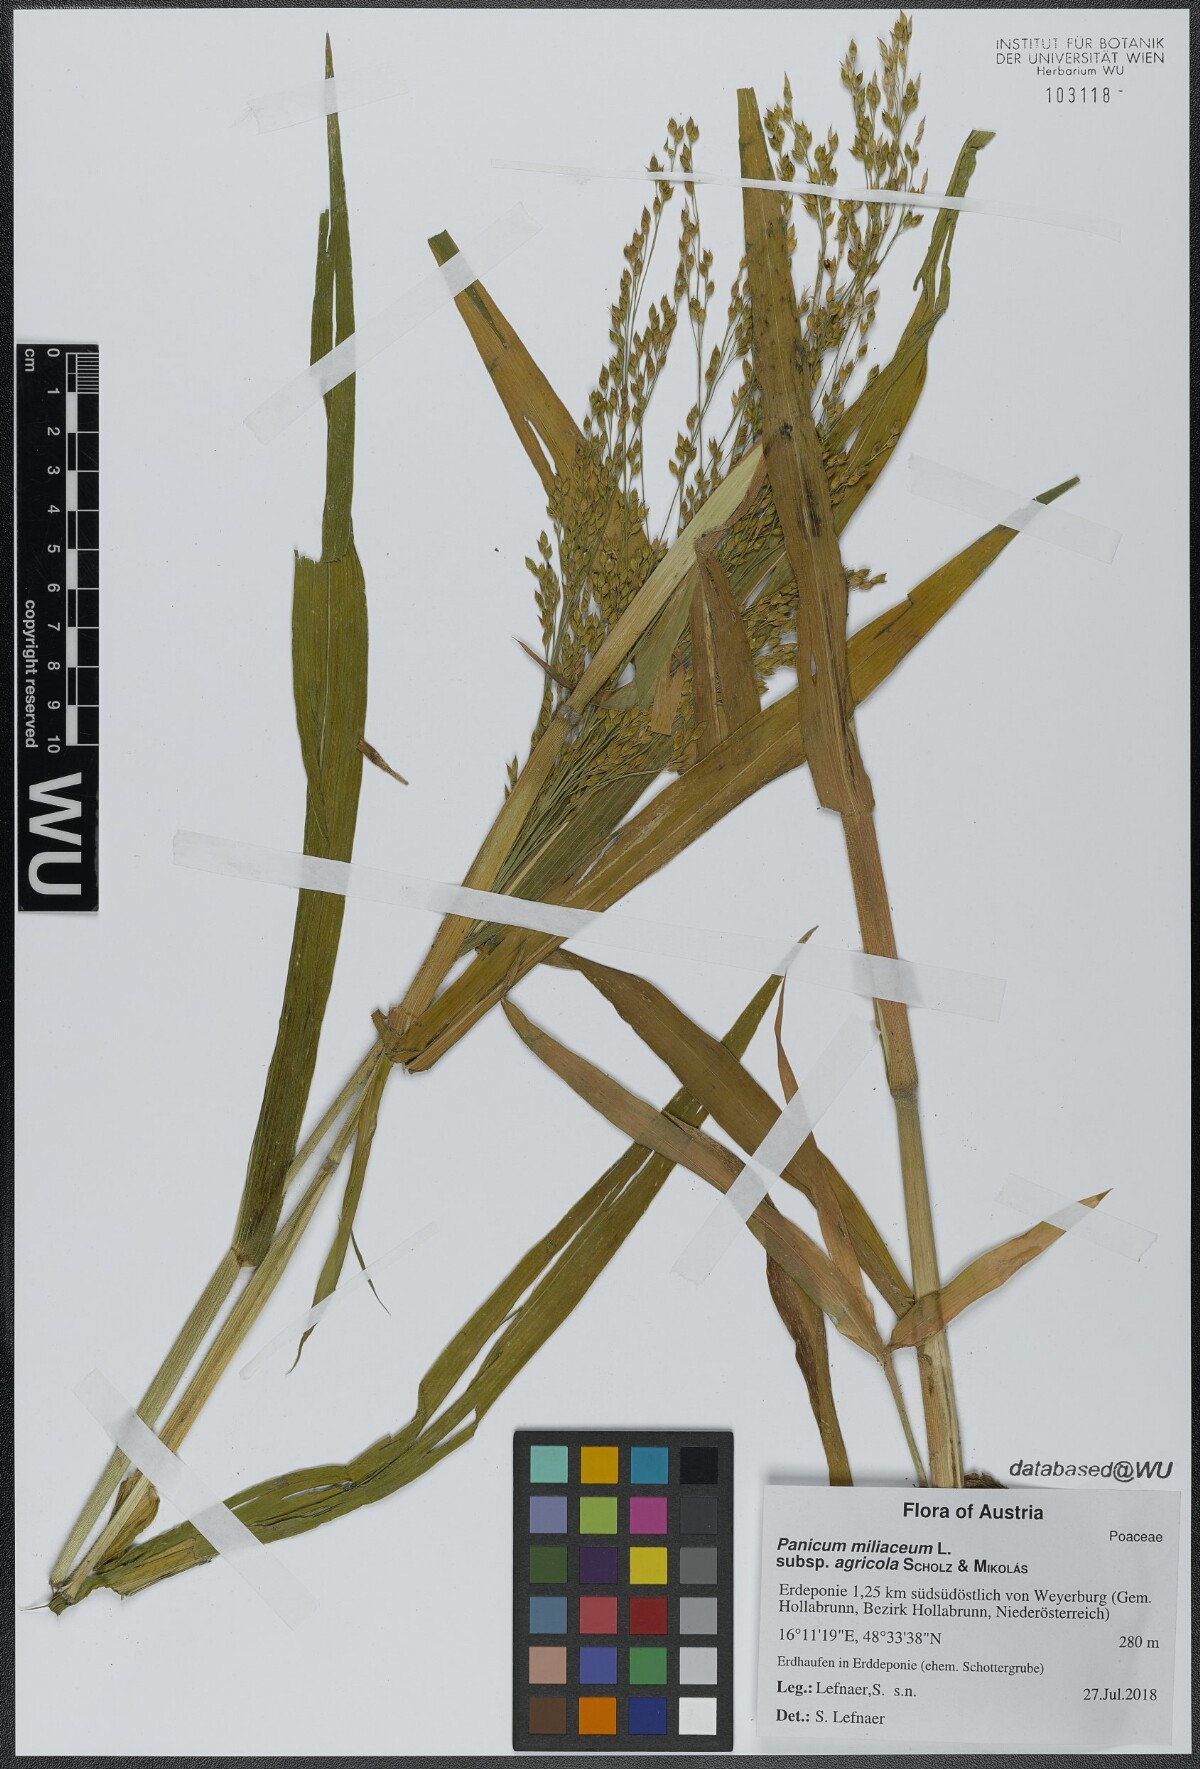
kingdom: Plantae
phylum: Tracheophyta
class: Liliopsida
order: Poales
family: Poaceae
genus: Panicum
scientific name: Panicum miliaceum
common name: Common millet
